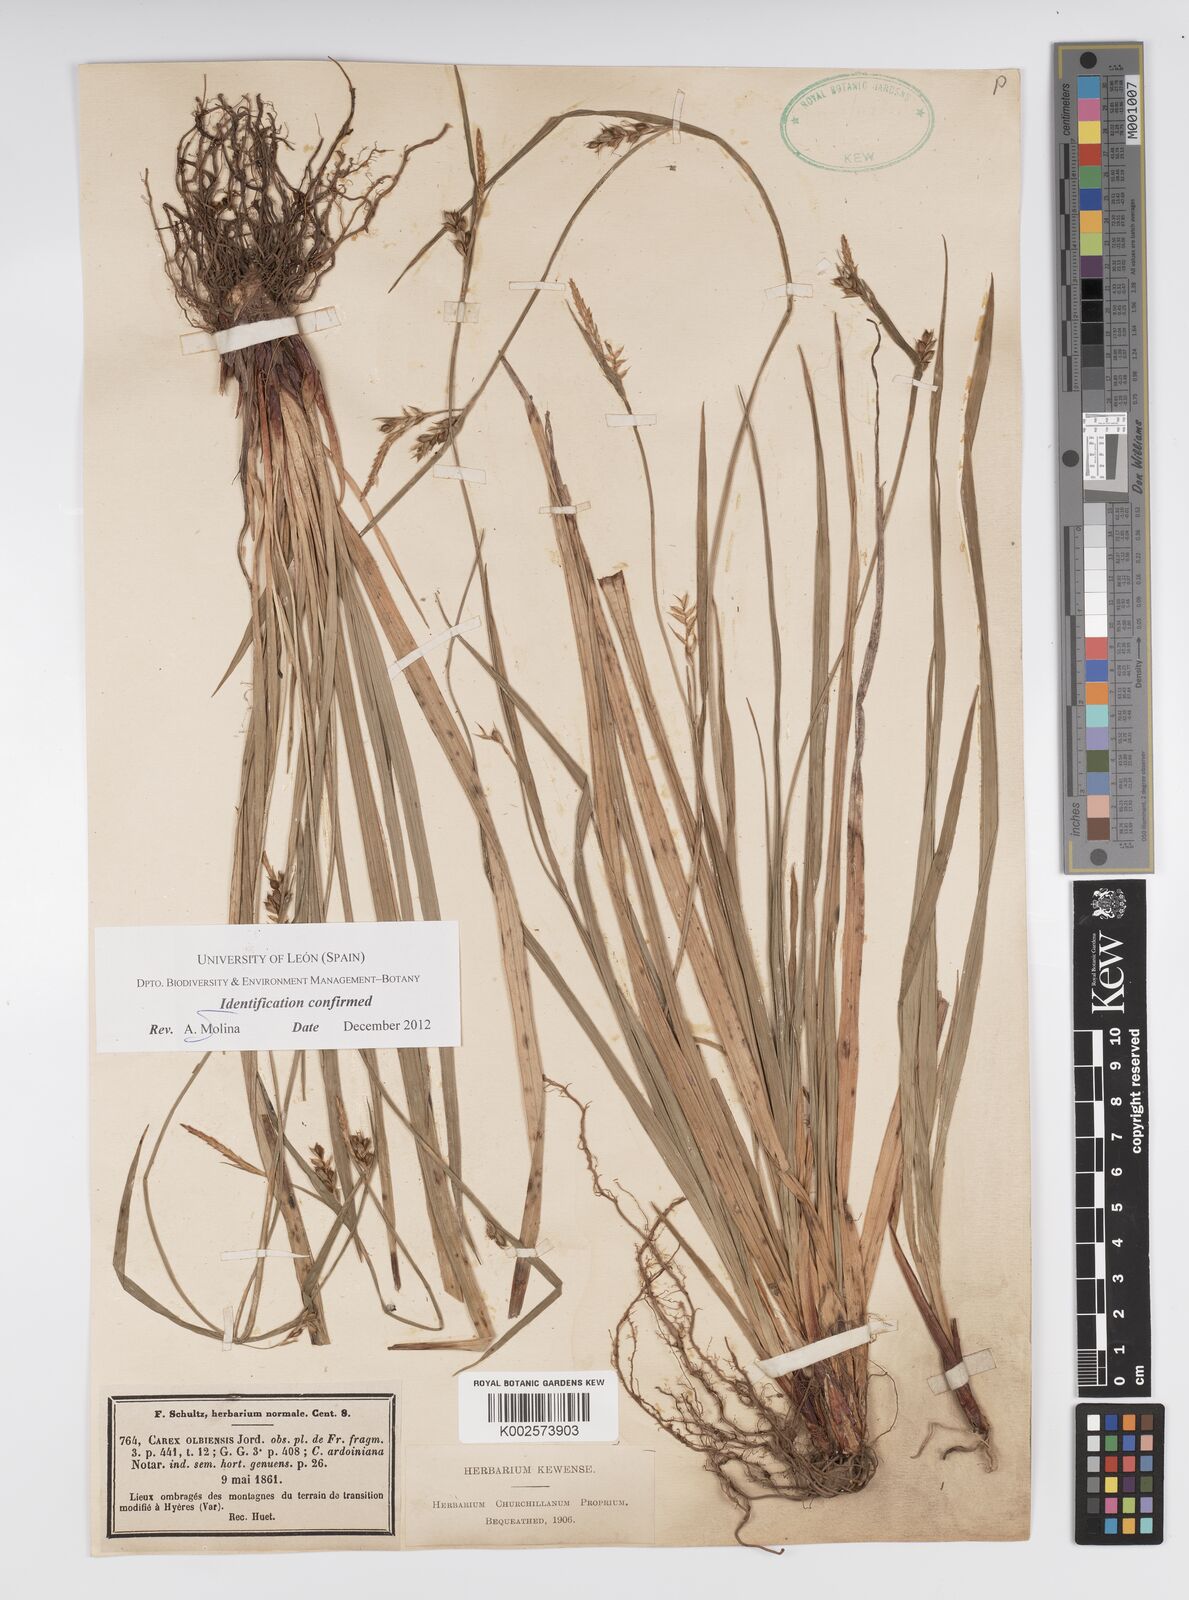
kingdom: Plantae
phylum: Tracheophyta
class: Liliopsida
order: Poales
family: Cyperaceae
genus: Carex
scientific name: Carex olbiensis
